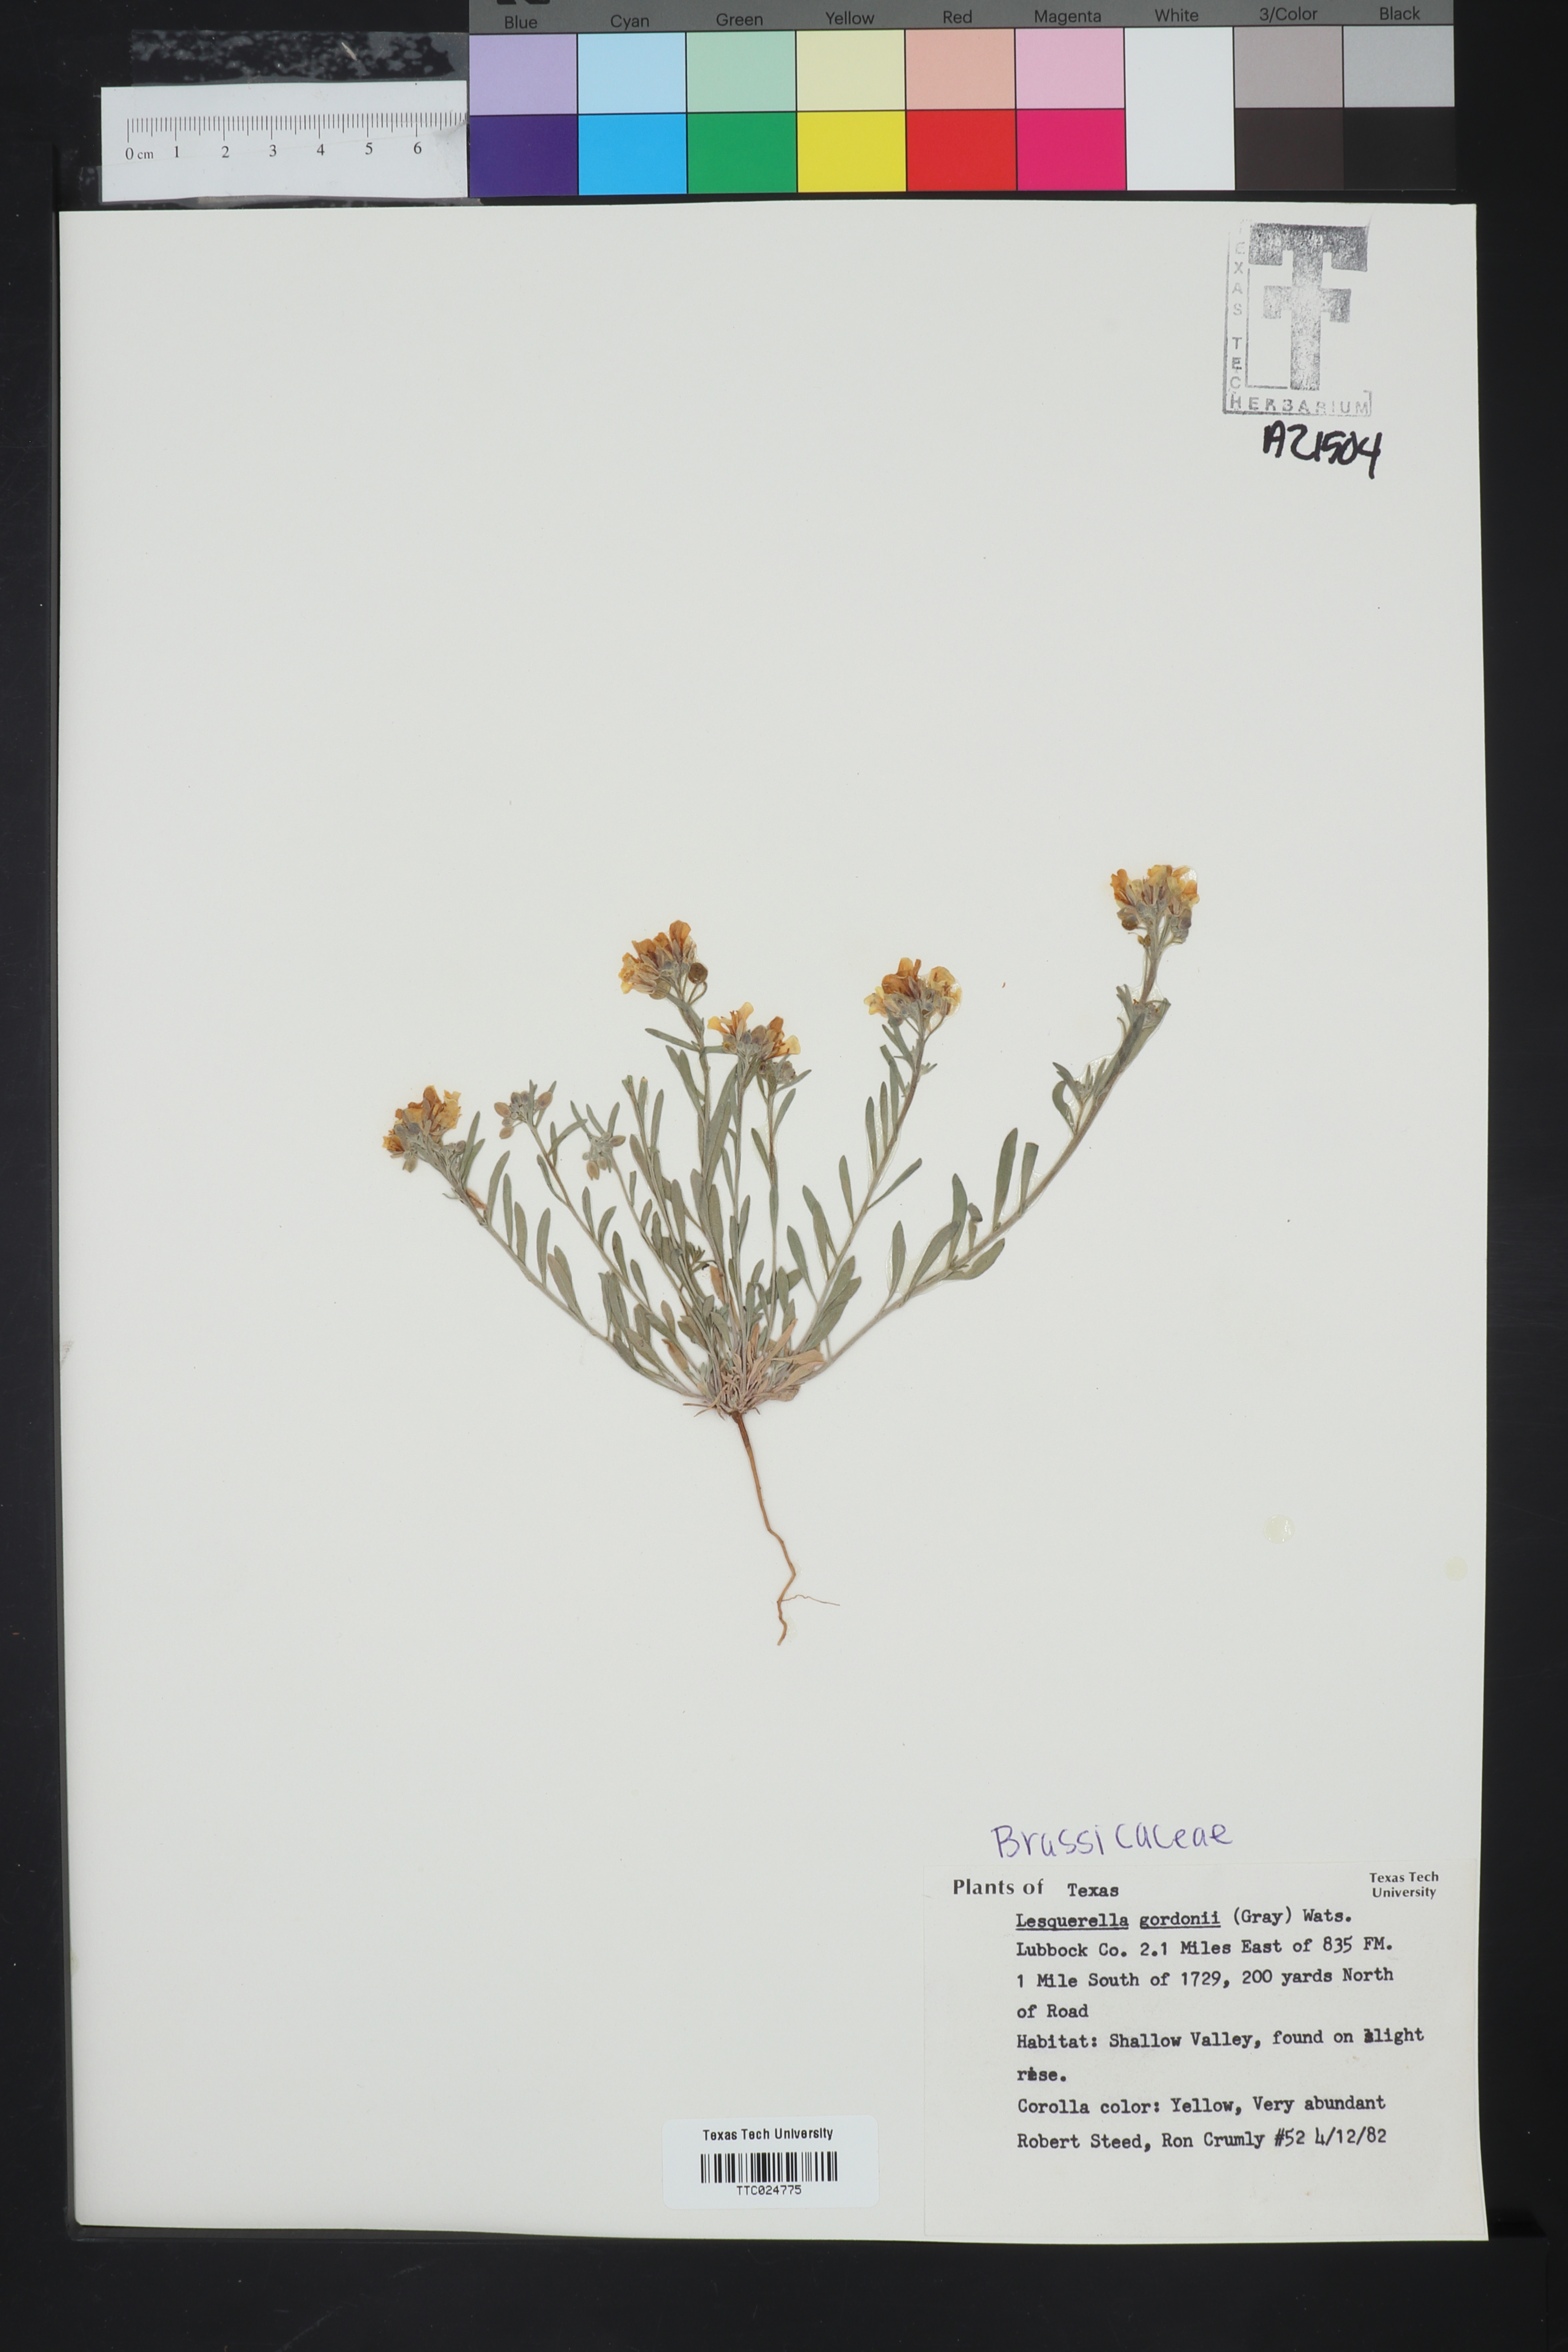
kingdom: Plantae
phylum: Tracheophyta
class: Magnoliopsida
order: Brassicales
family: Brassicaceae
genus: Physaria
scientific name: Physaria gordonii
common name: Gordon's bladderpod
